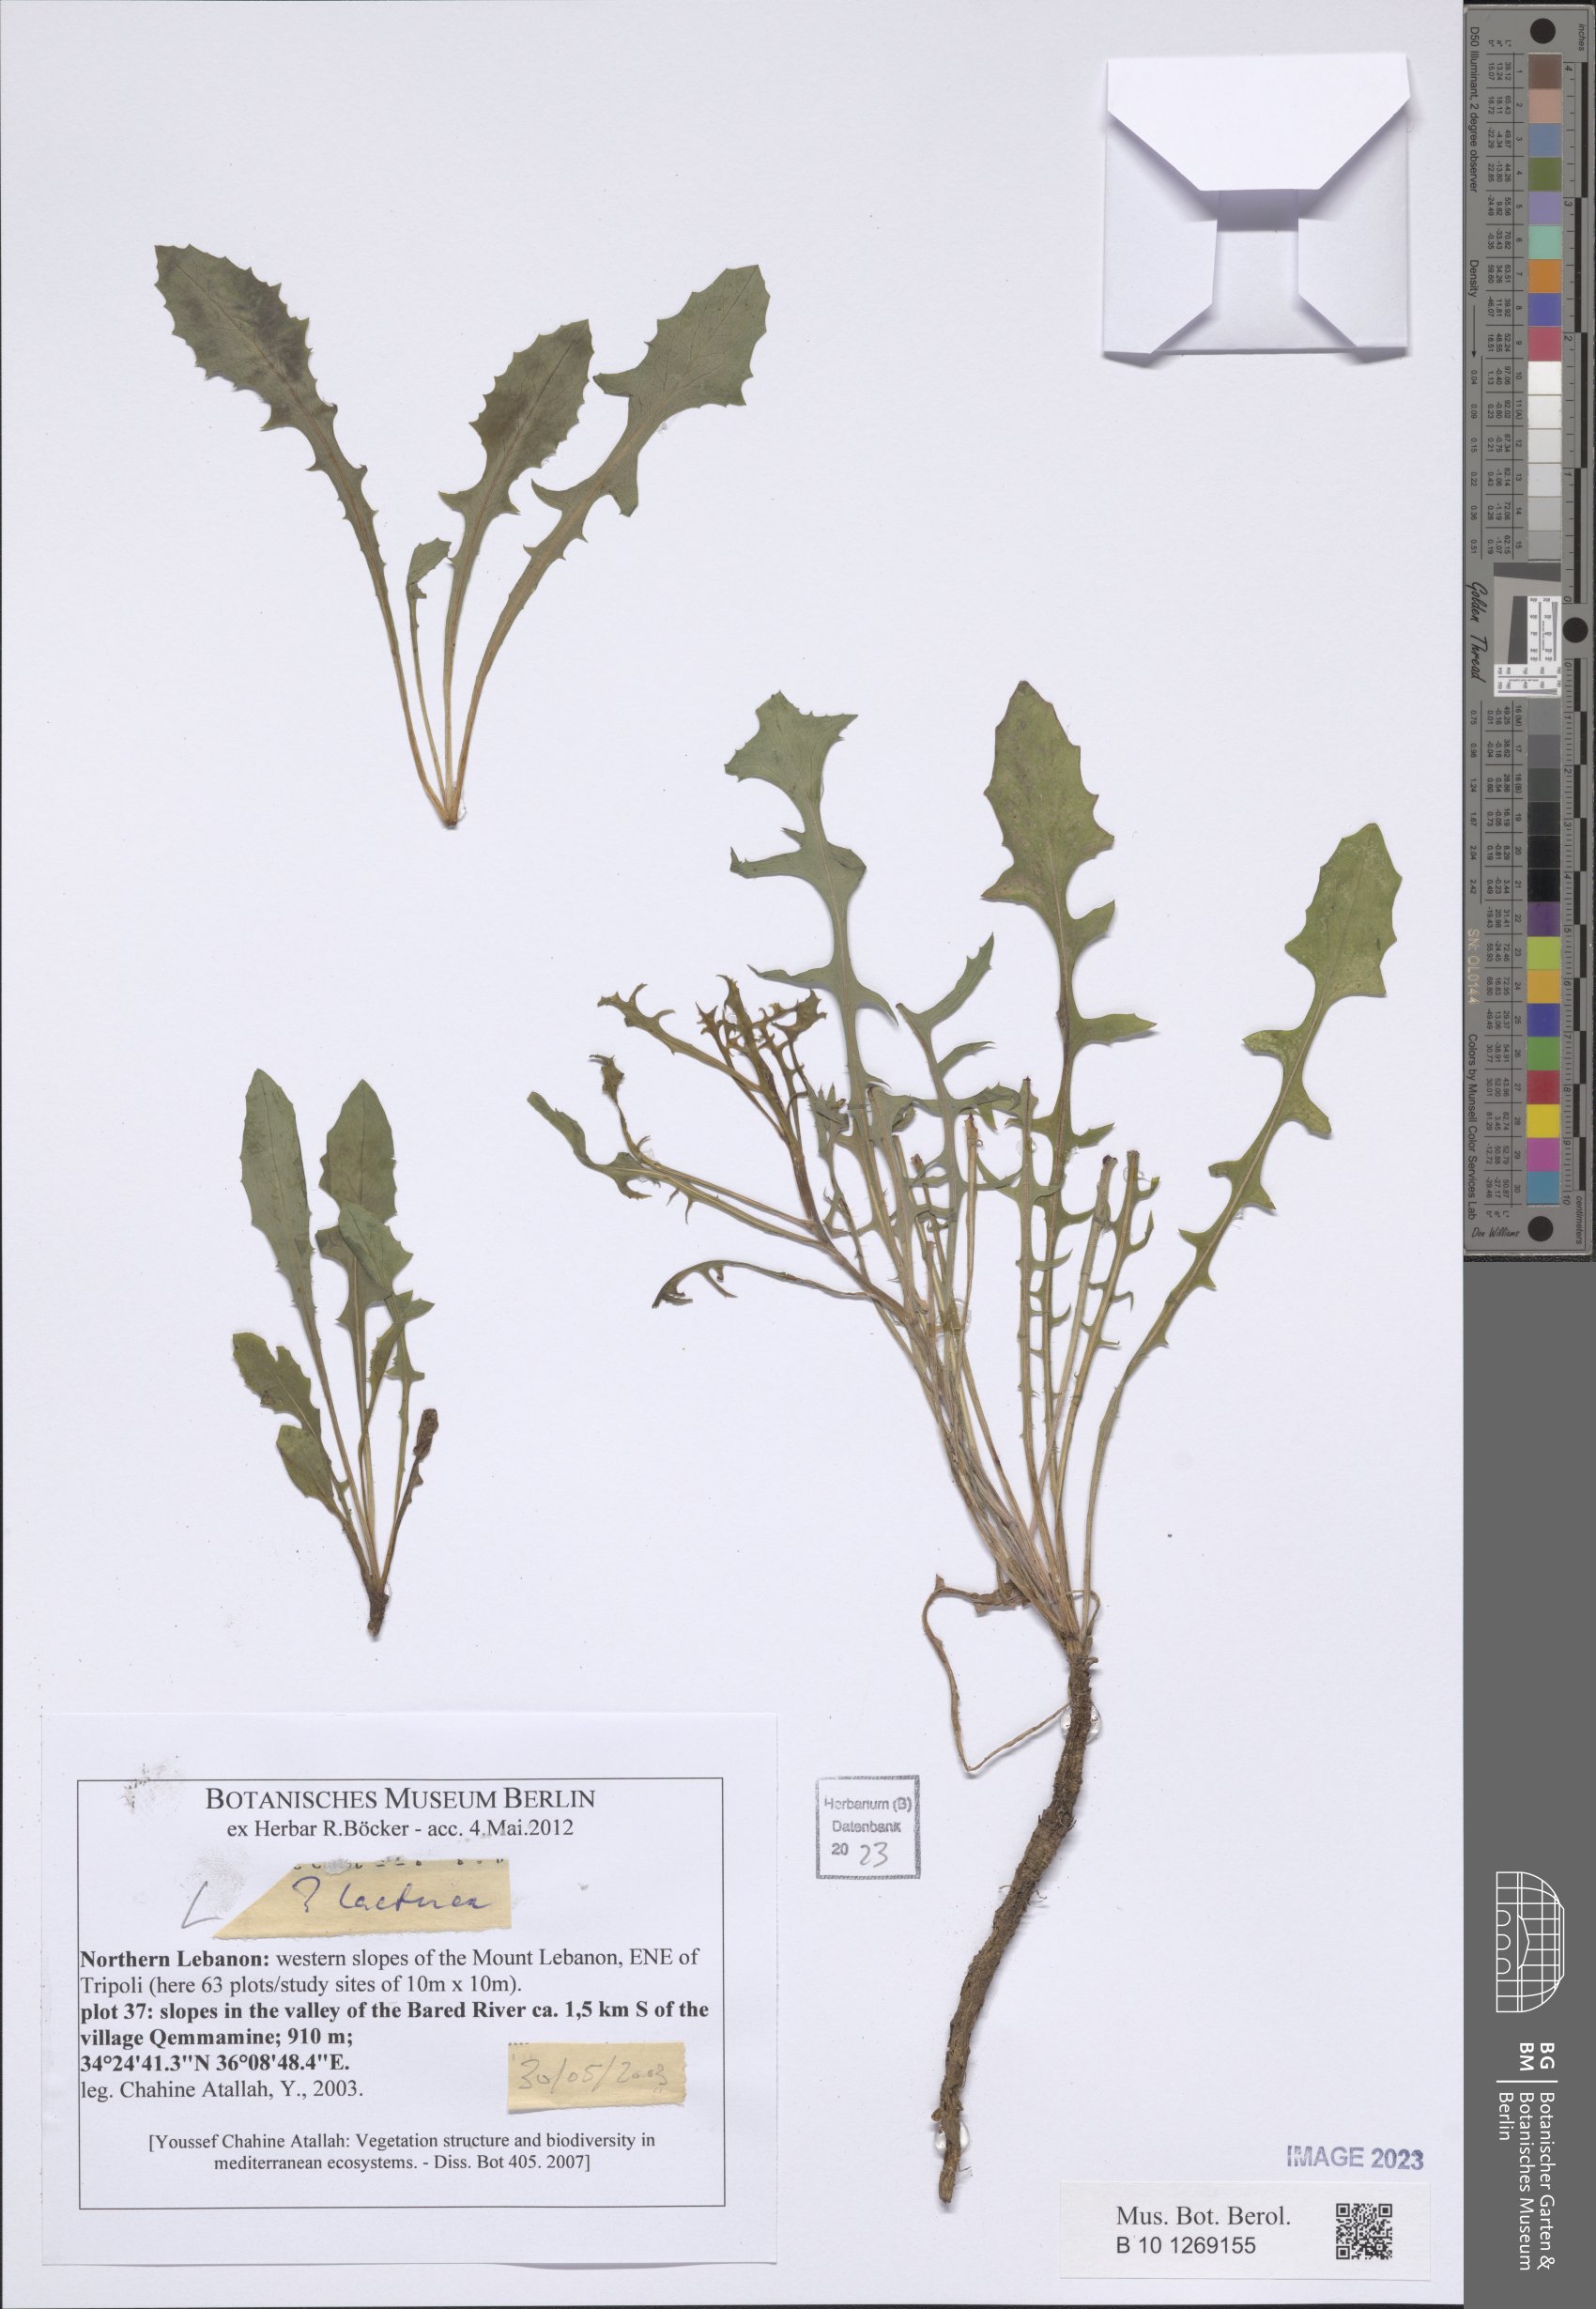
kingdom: Plantae
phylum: Tracheophyta
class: Magnoliopsida
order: Asterales
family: Asteraceae
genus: Lactuca
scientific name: Lactuca
